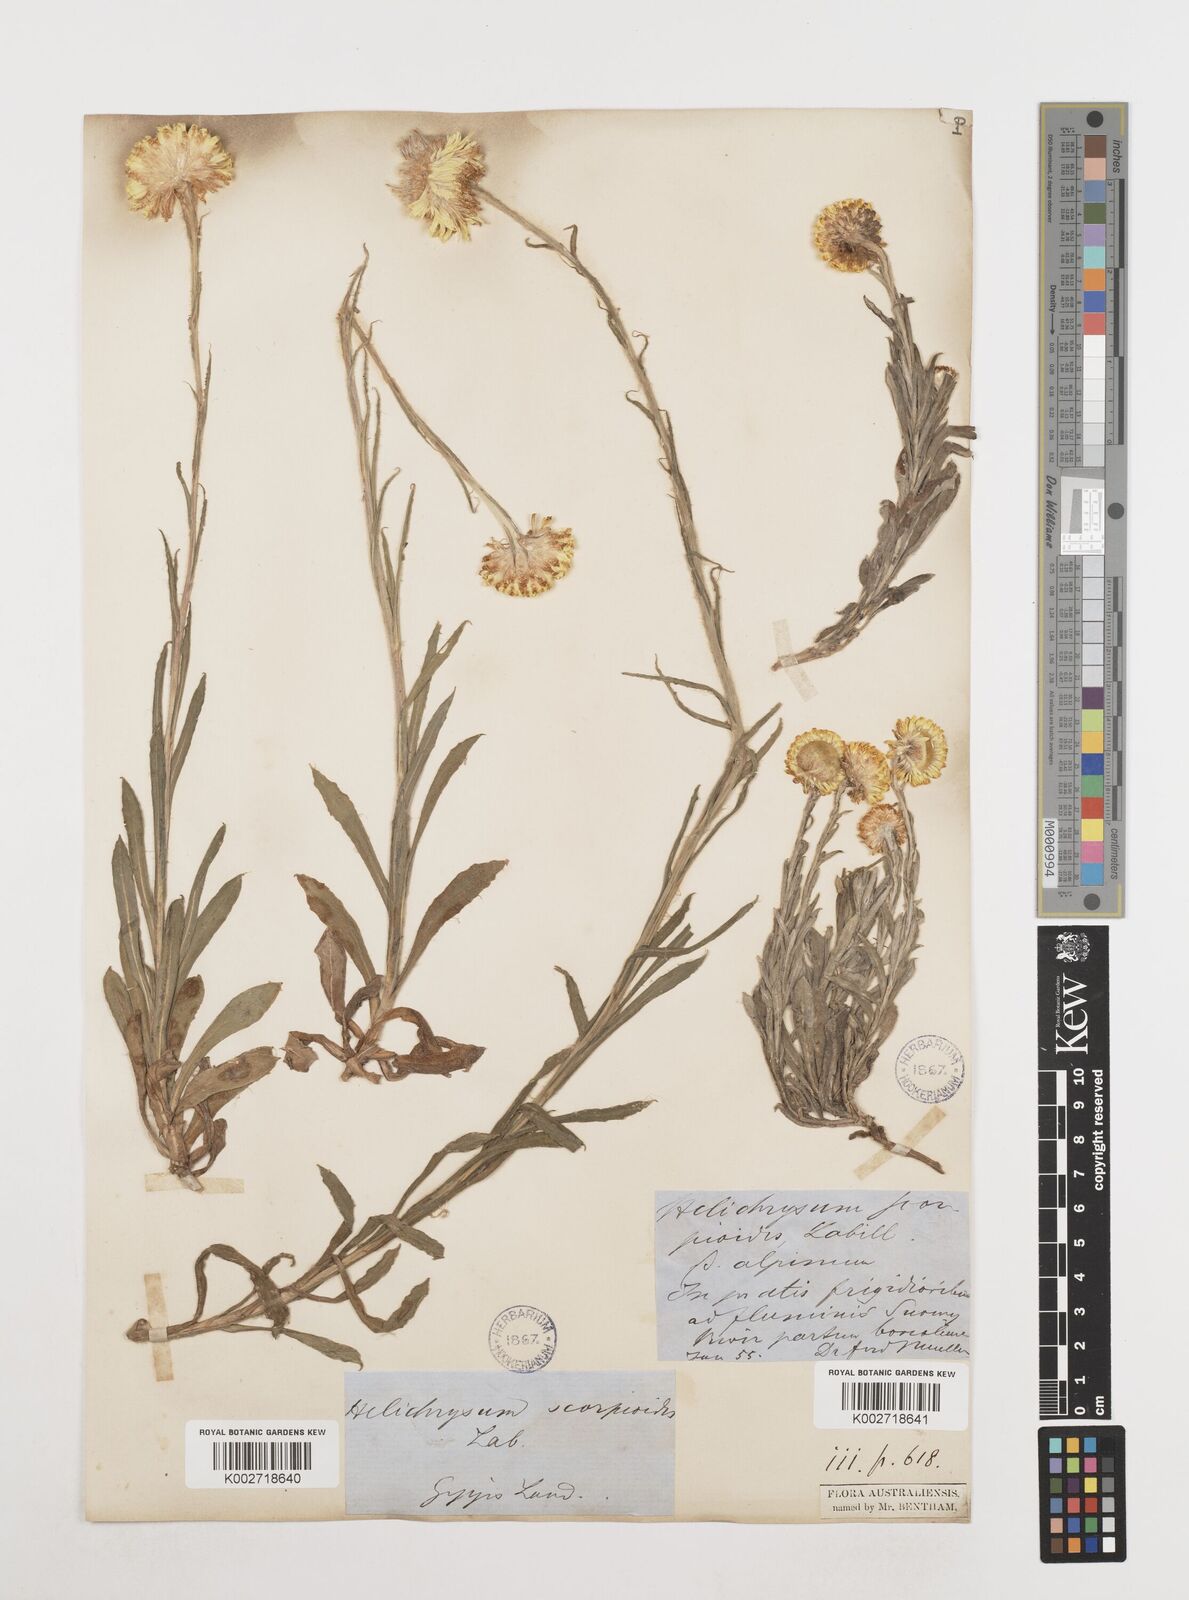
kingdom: Plantae
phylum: Tracheophyta
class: Magnoliopsida
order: Asterales
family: Asteraceae
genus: Coronidium
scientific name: Coronidium scorpioides
